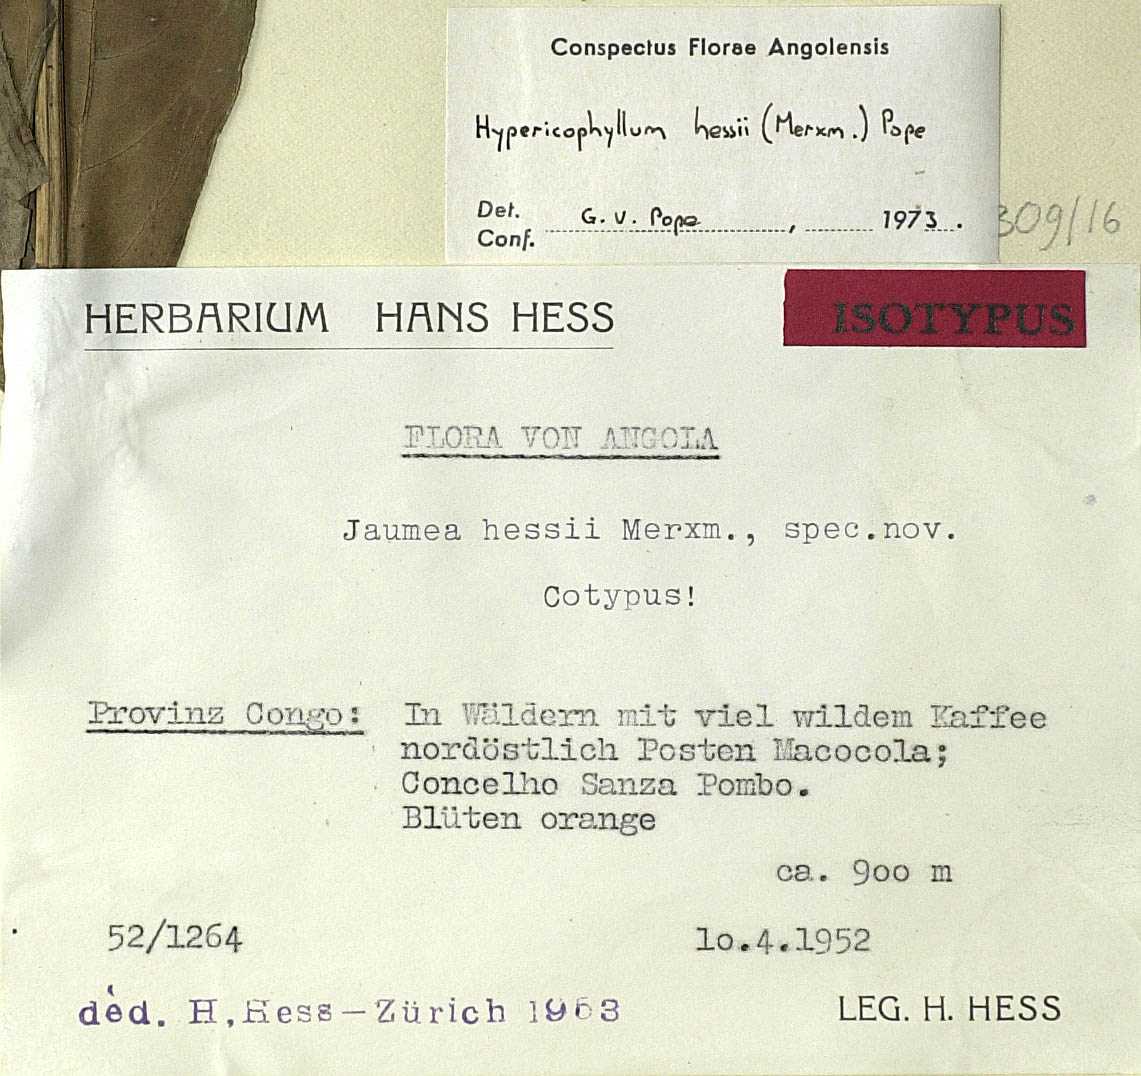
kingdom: Plantae
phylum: Tracheophyta
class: Magnoliopsida
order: Asterales
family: Asteraceae
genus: Hypericophyllum
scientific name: Hypericophyllum hessii
